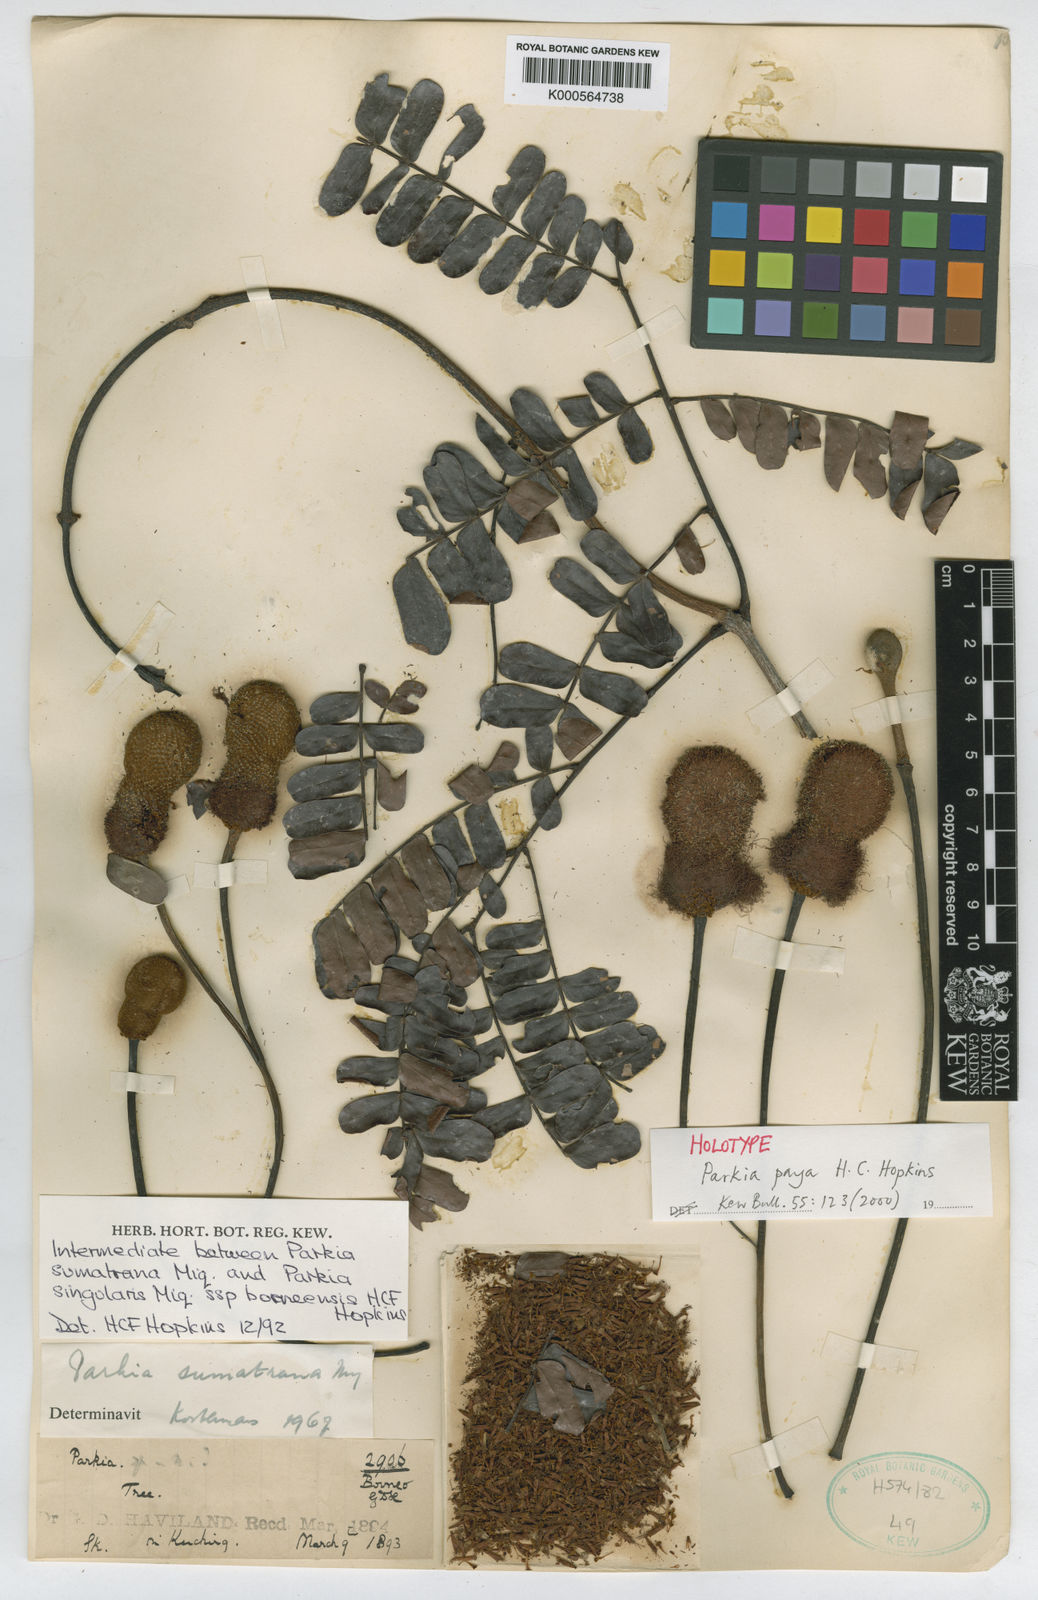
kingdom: Plantae
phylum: Tracheophyta
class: Magnoliopsida
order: Fabales
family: Fabaceae
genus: Parkia
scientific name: Parkia
